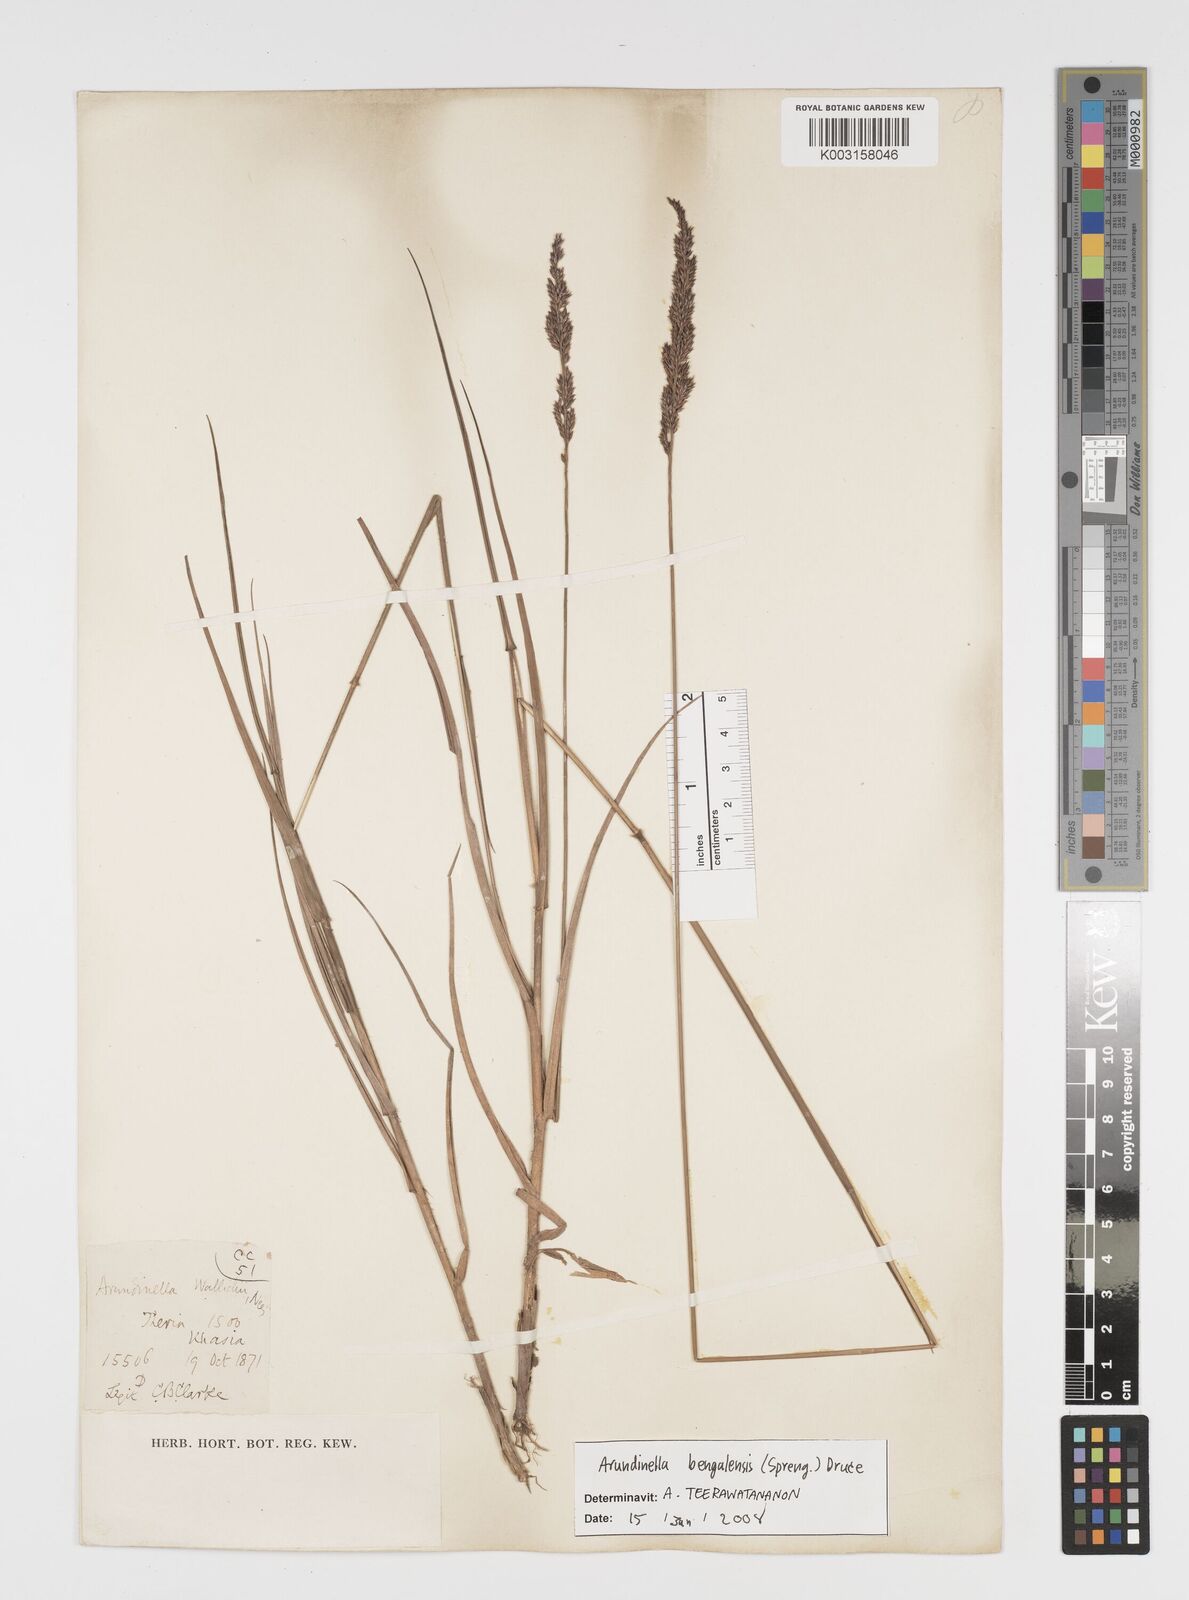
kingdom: Plantae
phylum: Tracheophyta
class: Liliopsida
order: Poales
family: Poaceae
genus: Arundinella
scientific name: Arundinella bengalensis
